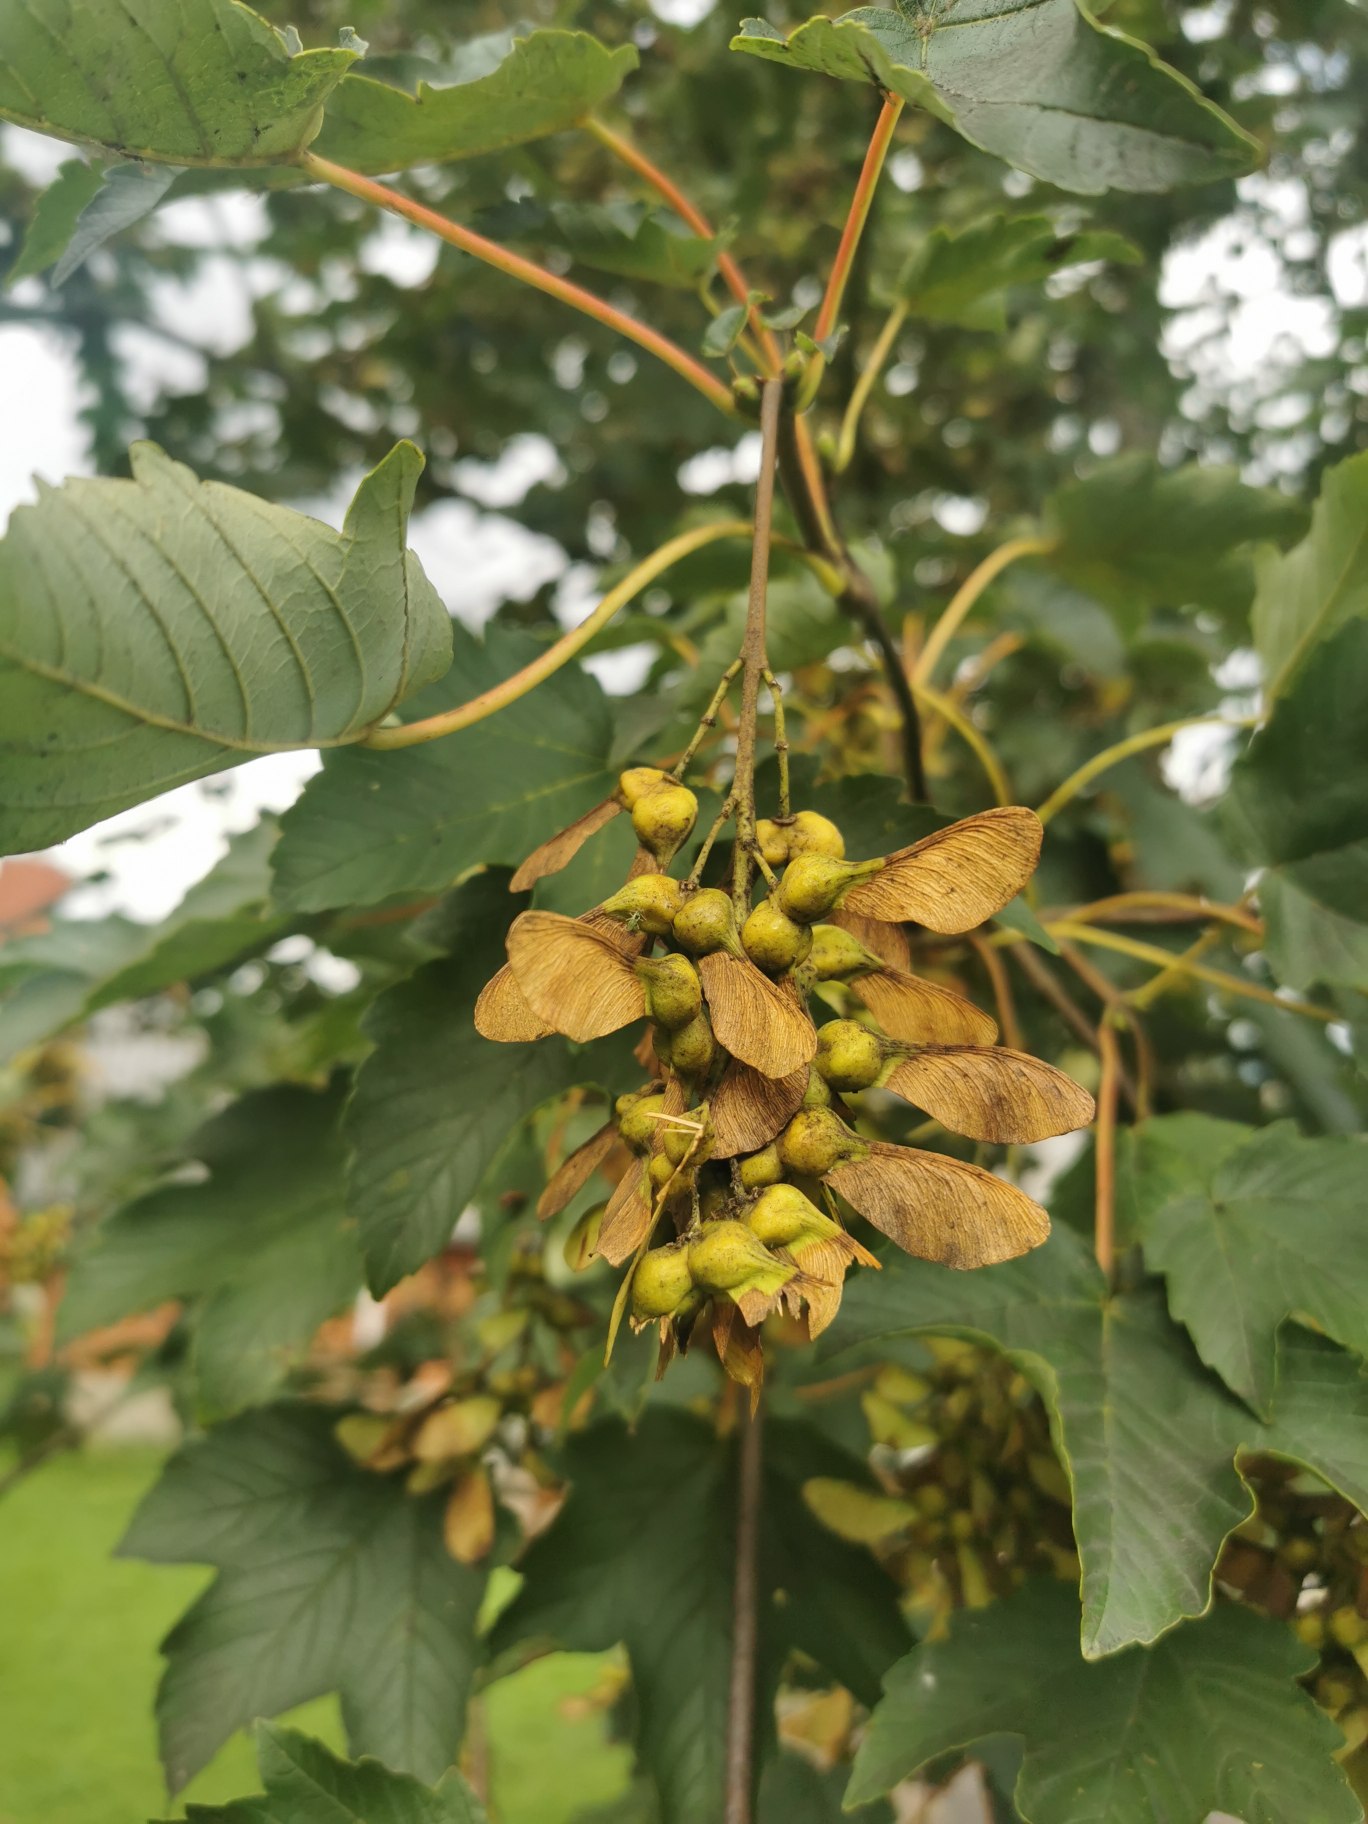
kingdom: Plantae
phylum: Tracheophyta
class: Magnoliopsida
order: Sapindales
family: Sapindaceae
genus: Acer
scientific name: Acer pseudoplatanus
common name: Ahorn
